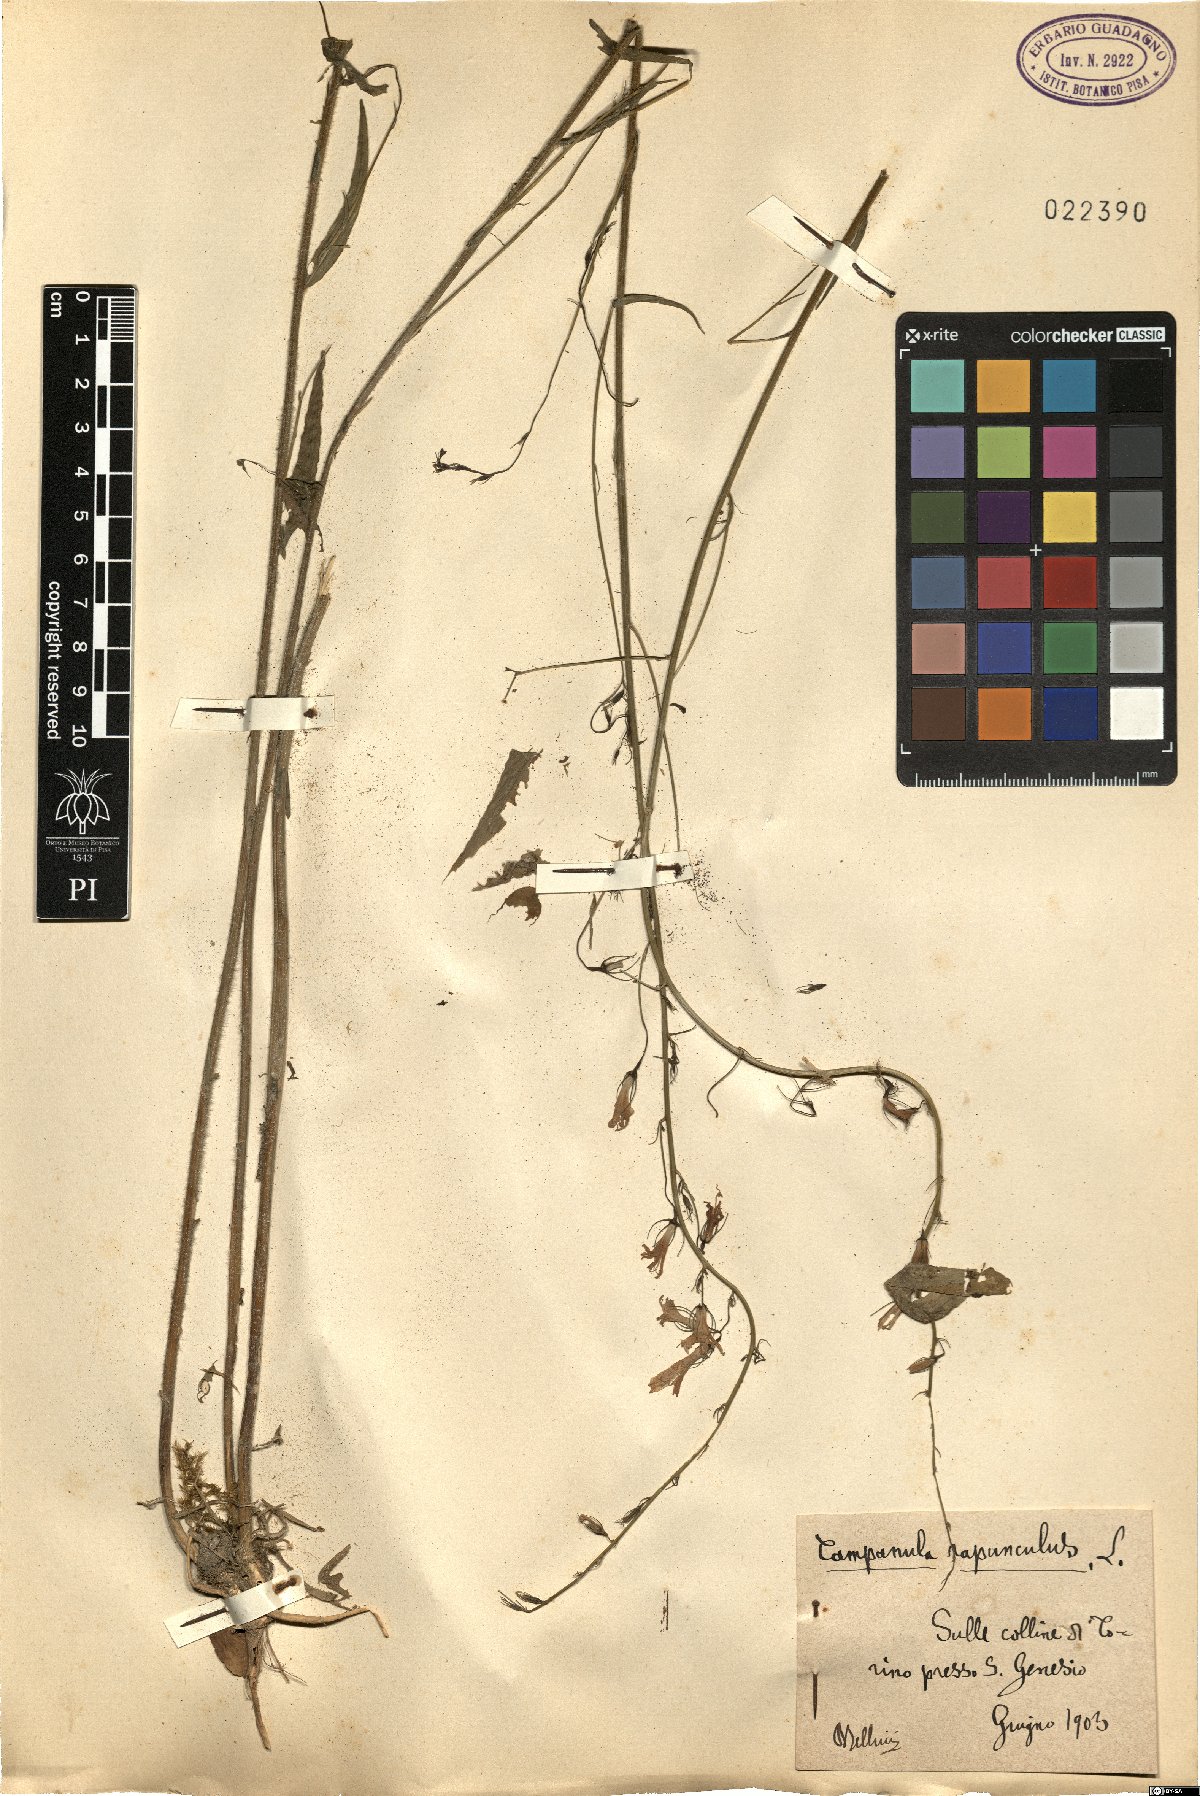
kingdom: Plantae
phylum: Tracheophyta
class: Magnoliopsida
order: Asterales
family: Campanulaceae
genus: Campanula
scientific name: Campanula rapunculus
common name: Rampion bellflower
